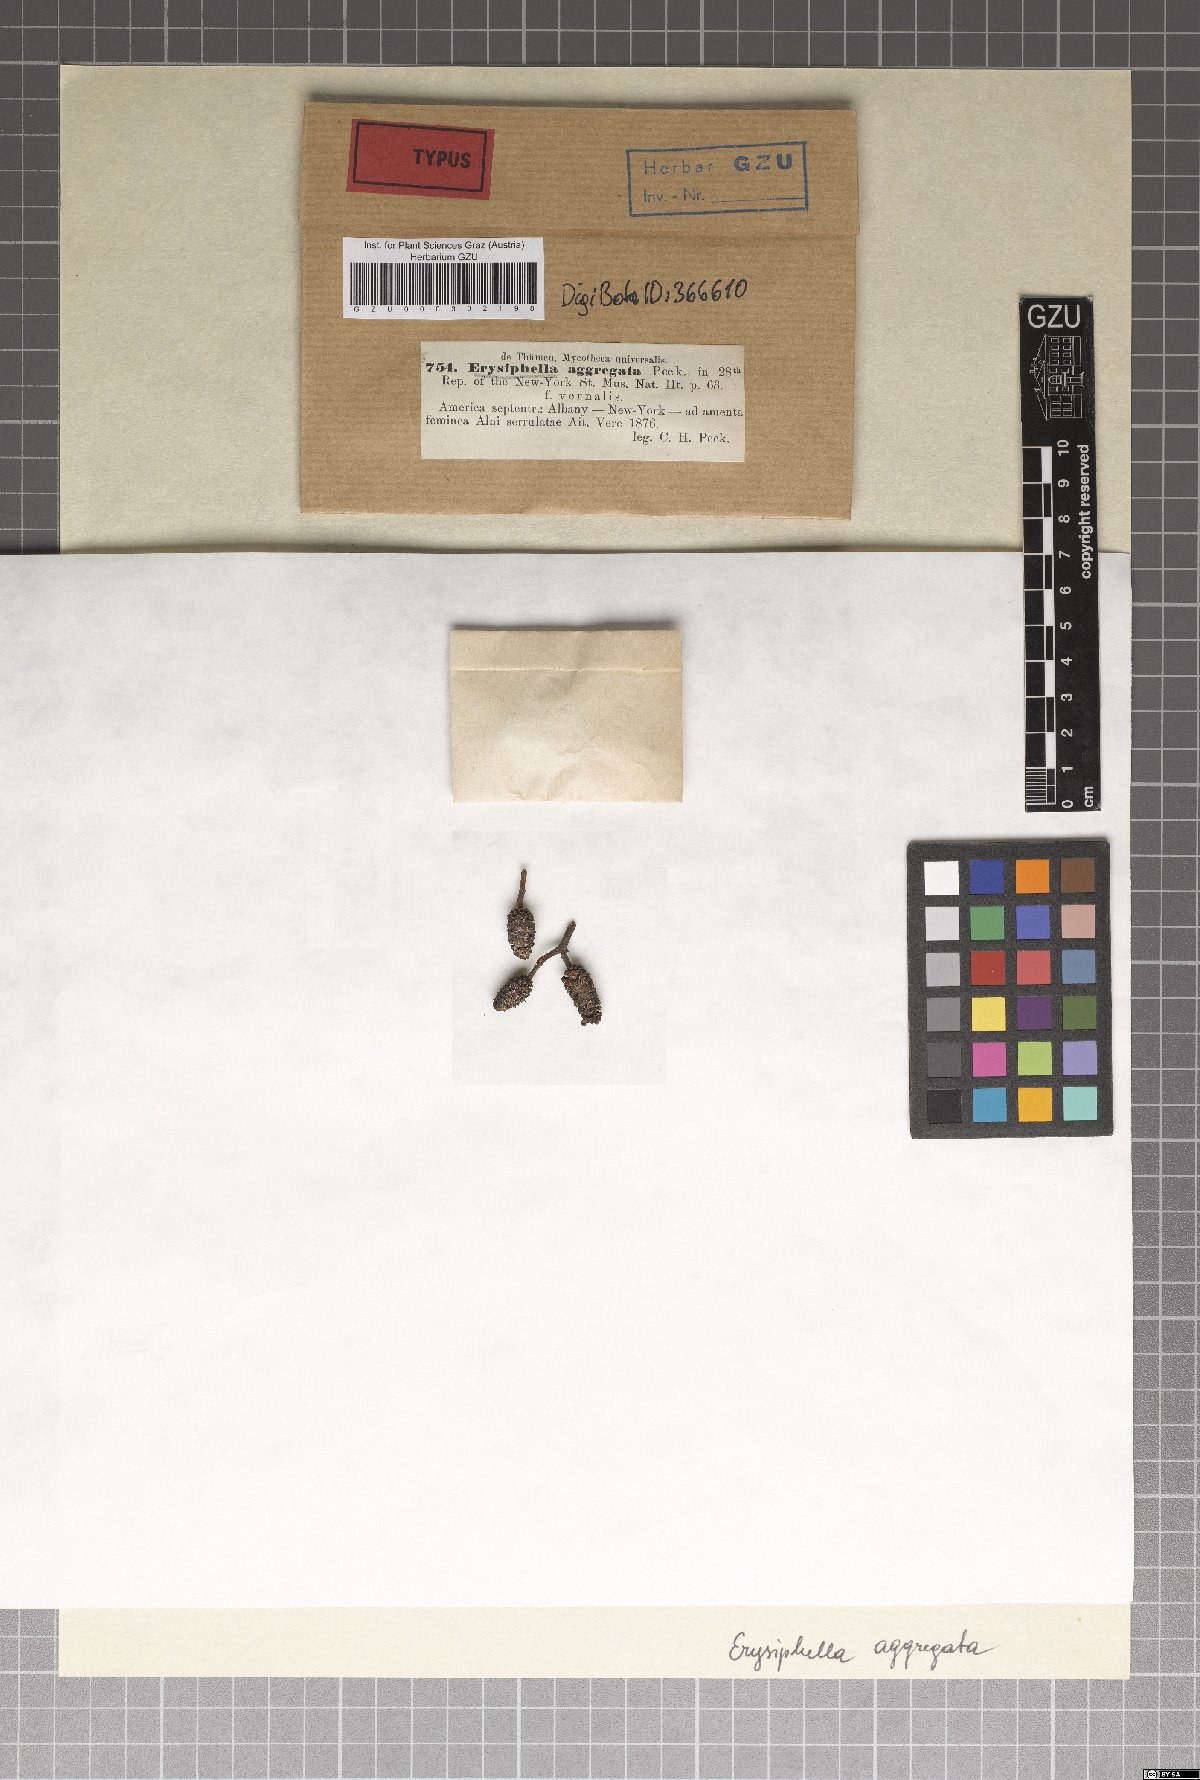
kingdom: Fungi
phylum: Ascomycota
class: Leotiomycetes
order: Helotiales
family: Erysiphaceae
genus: Erysiphe
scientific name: Erysiphe
